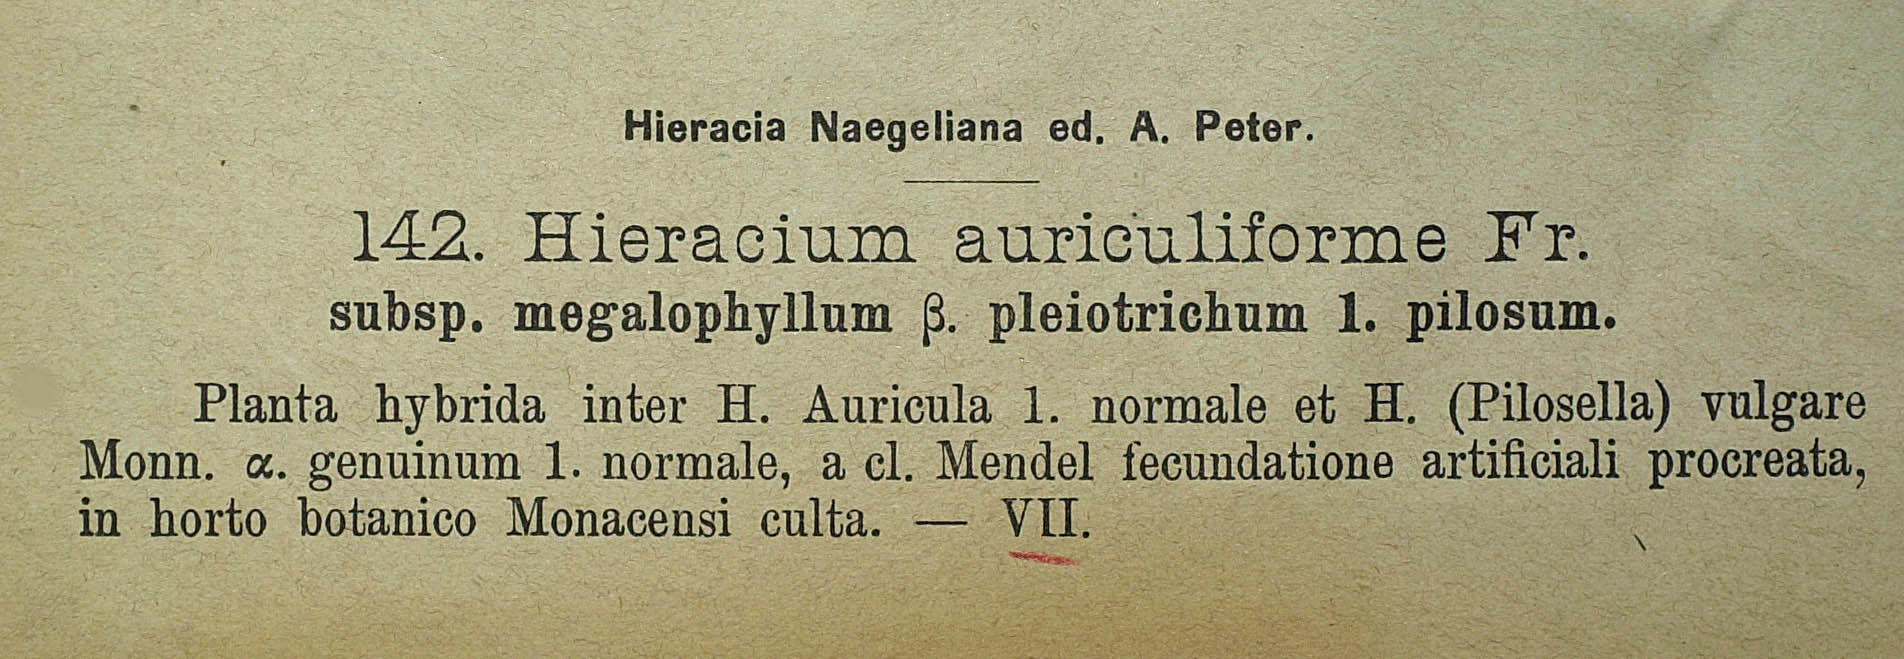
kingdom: Plantae
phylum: Tracheophyta
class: Magnoliopsida
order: Asterales
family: Asteraceae
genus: Pilosella
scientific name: Pilosella schultesii
